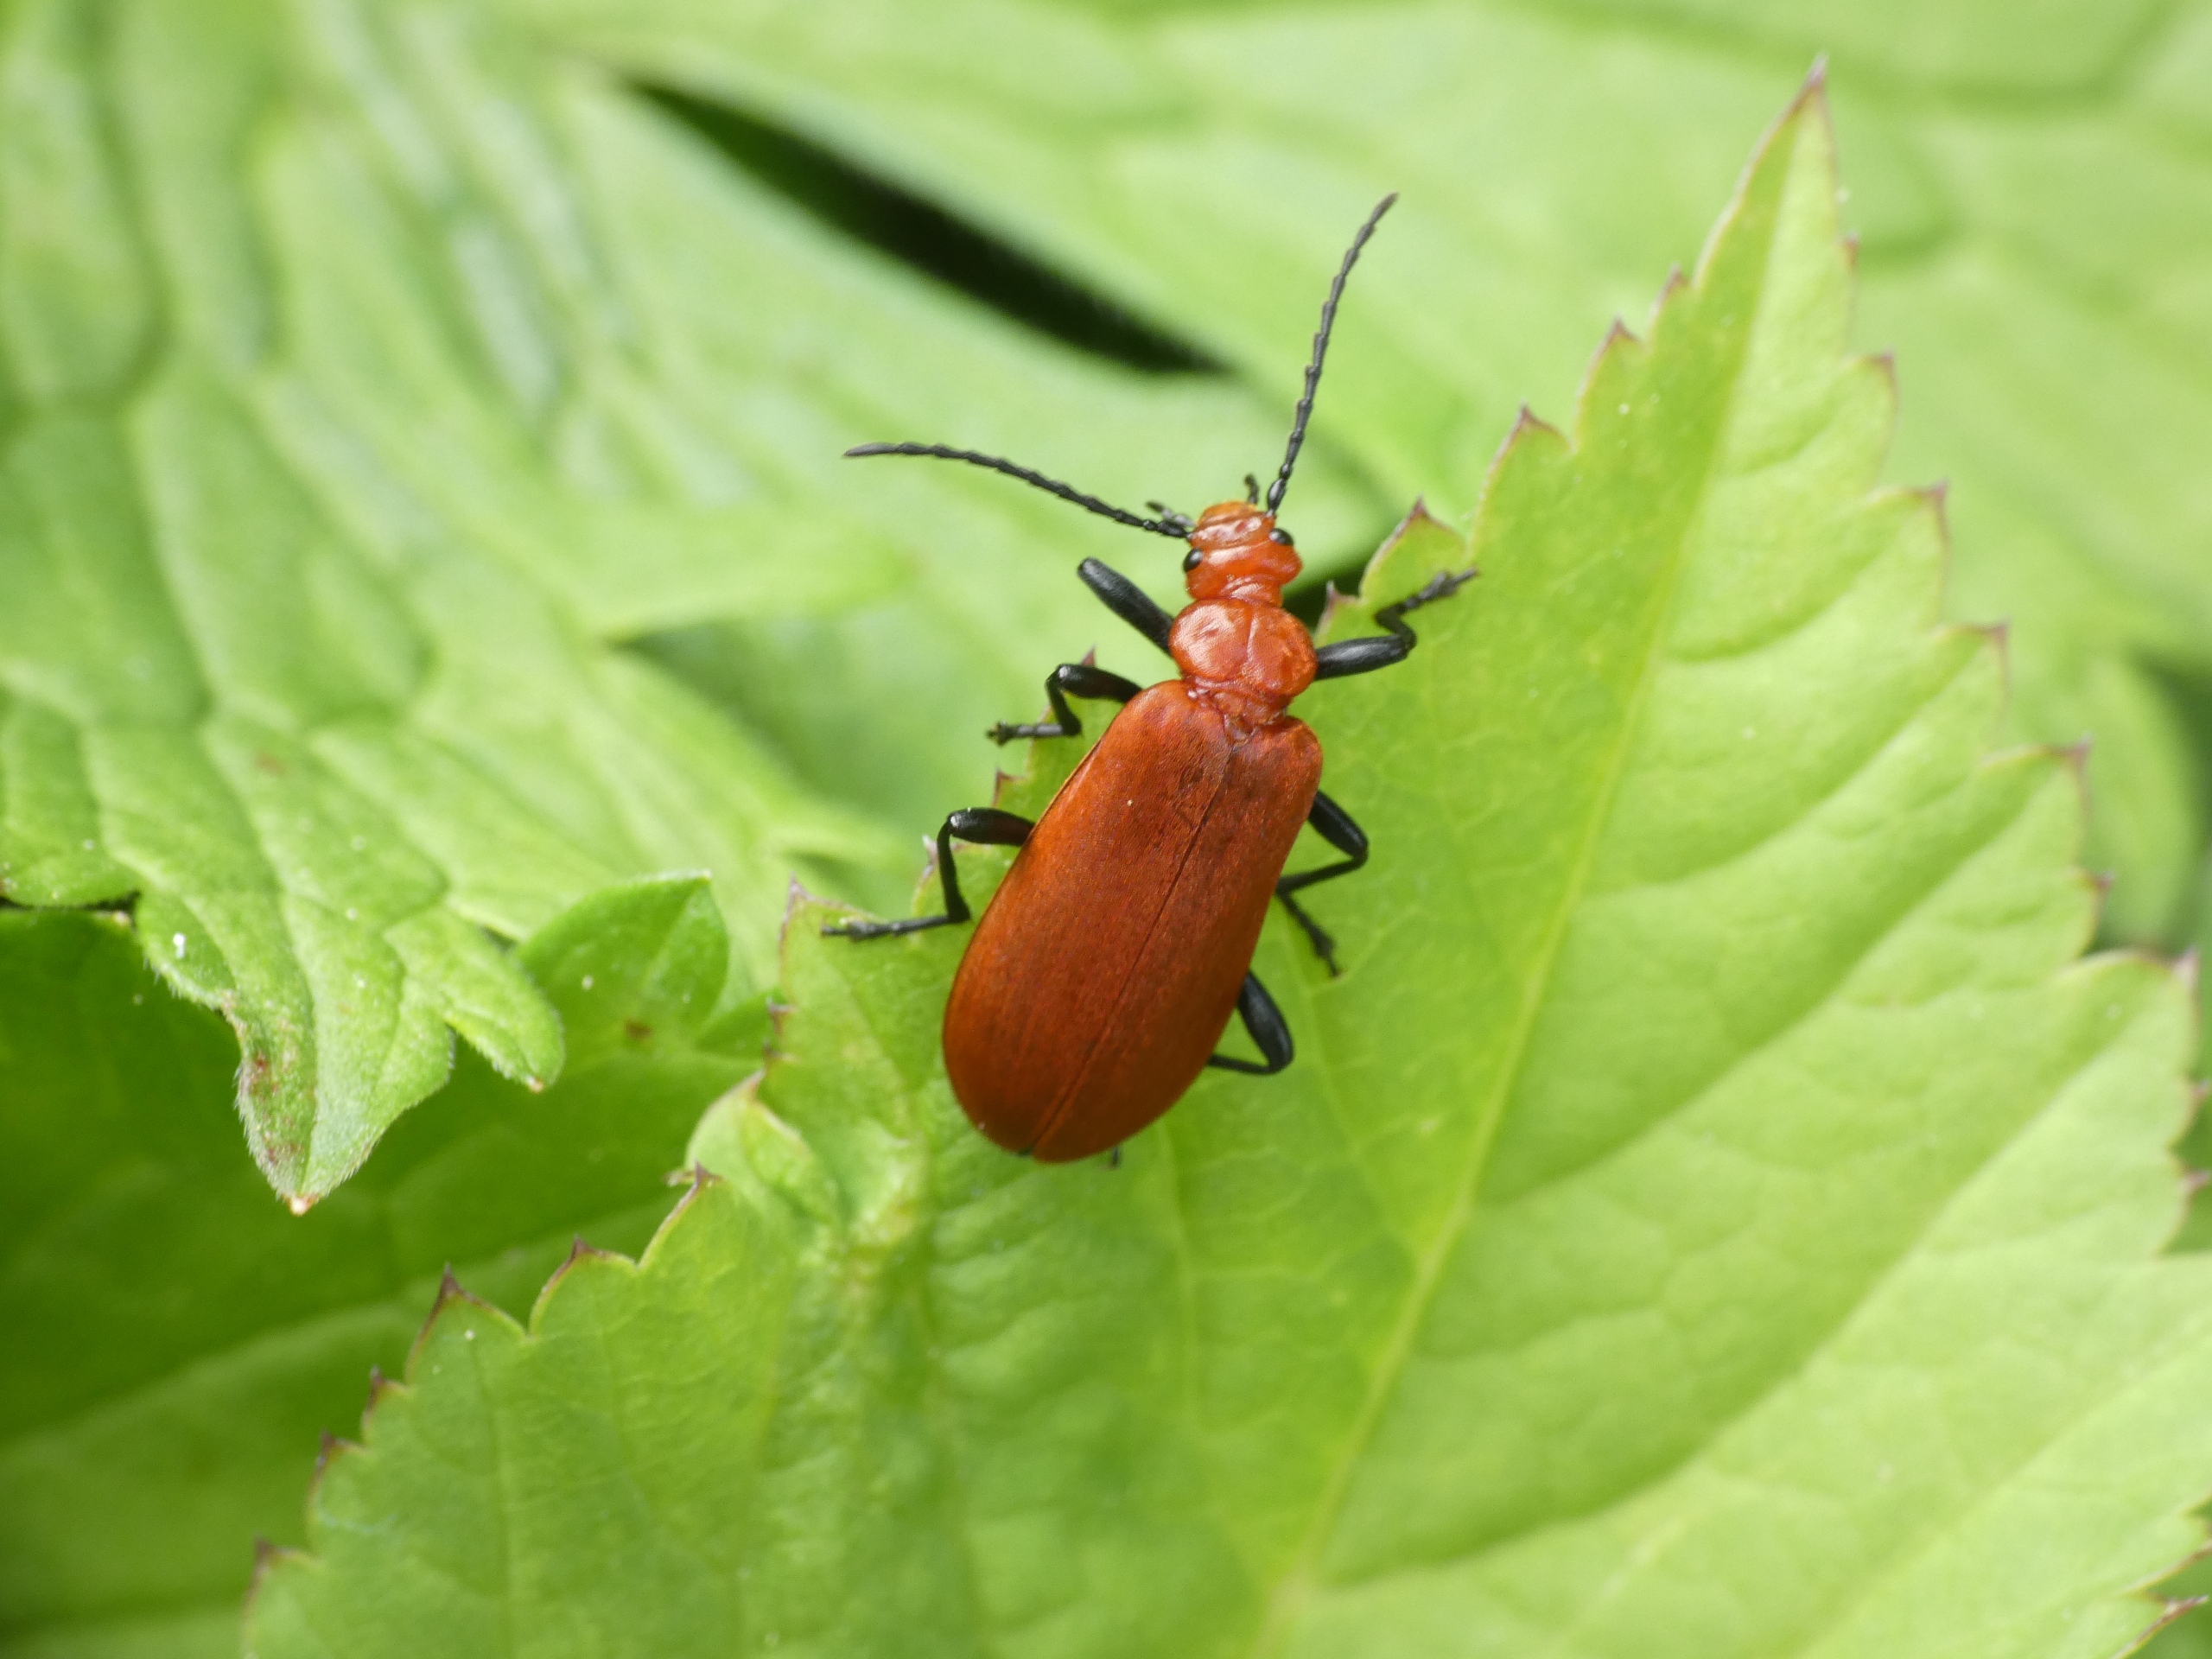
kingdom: Animalia
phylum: Arthropoda
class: Insecta
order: Coleoptera
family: Pyrochroidae
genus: Pyrochroa
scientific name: Pyrochroa serraticornis
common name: Rødhovedet kardinalbille
